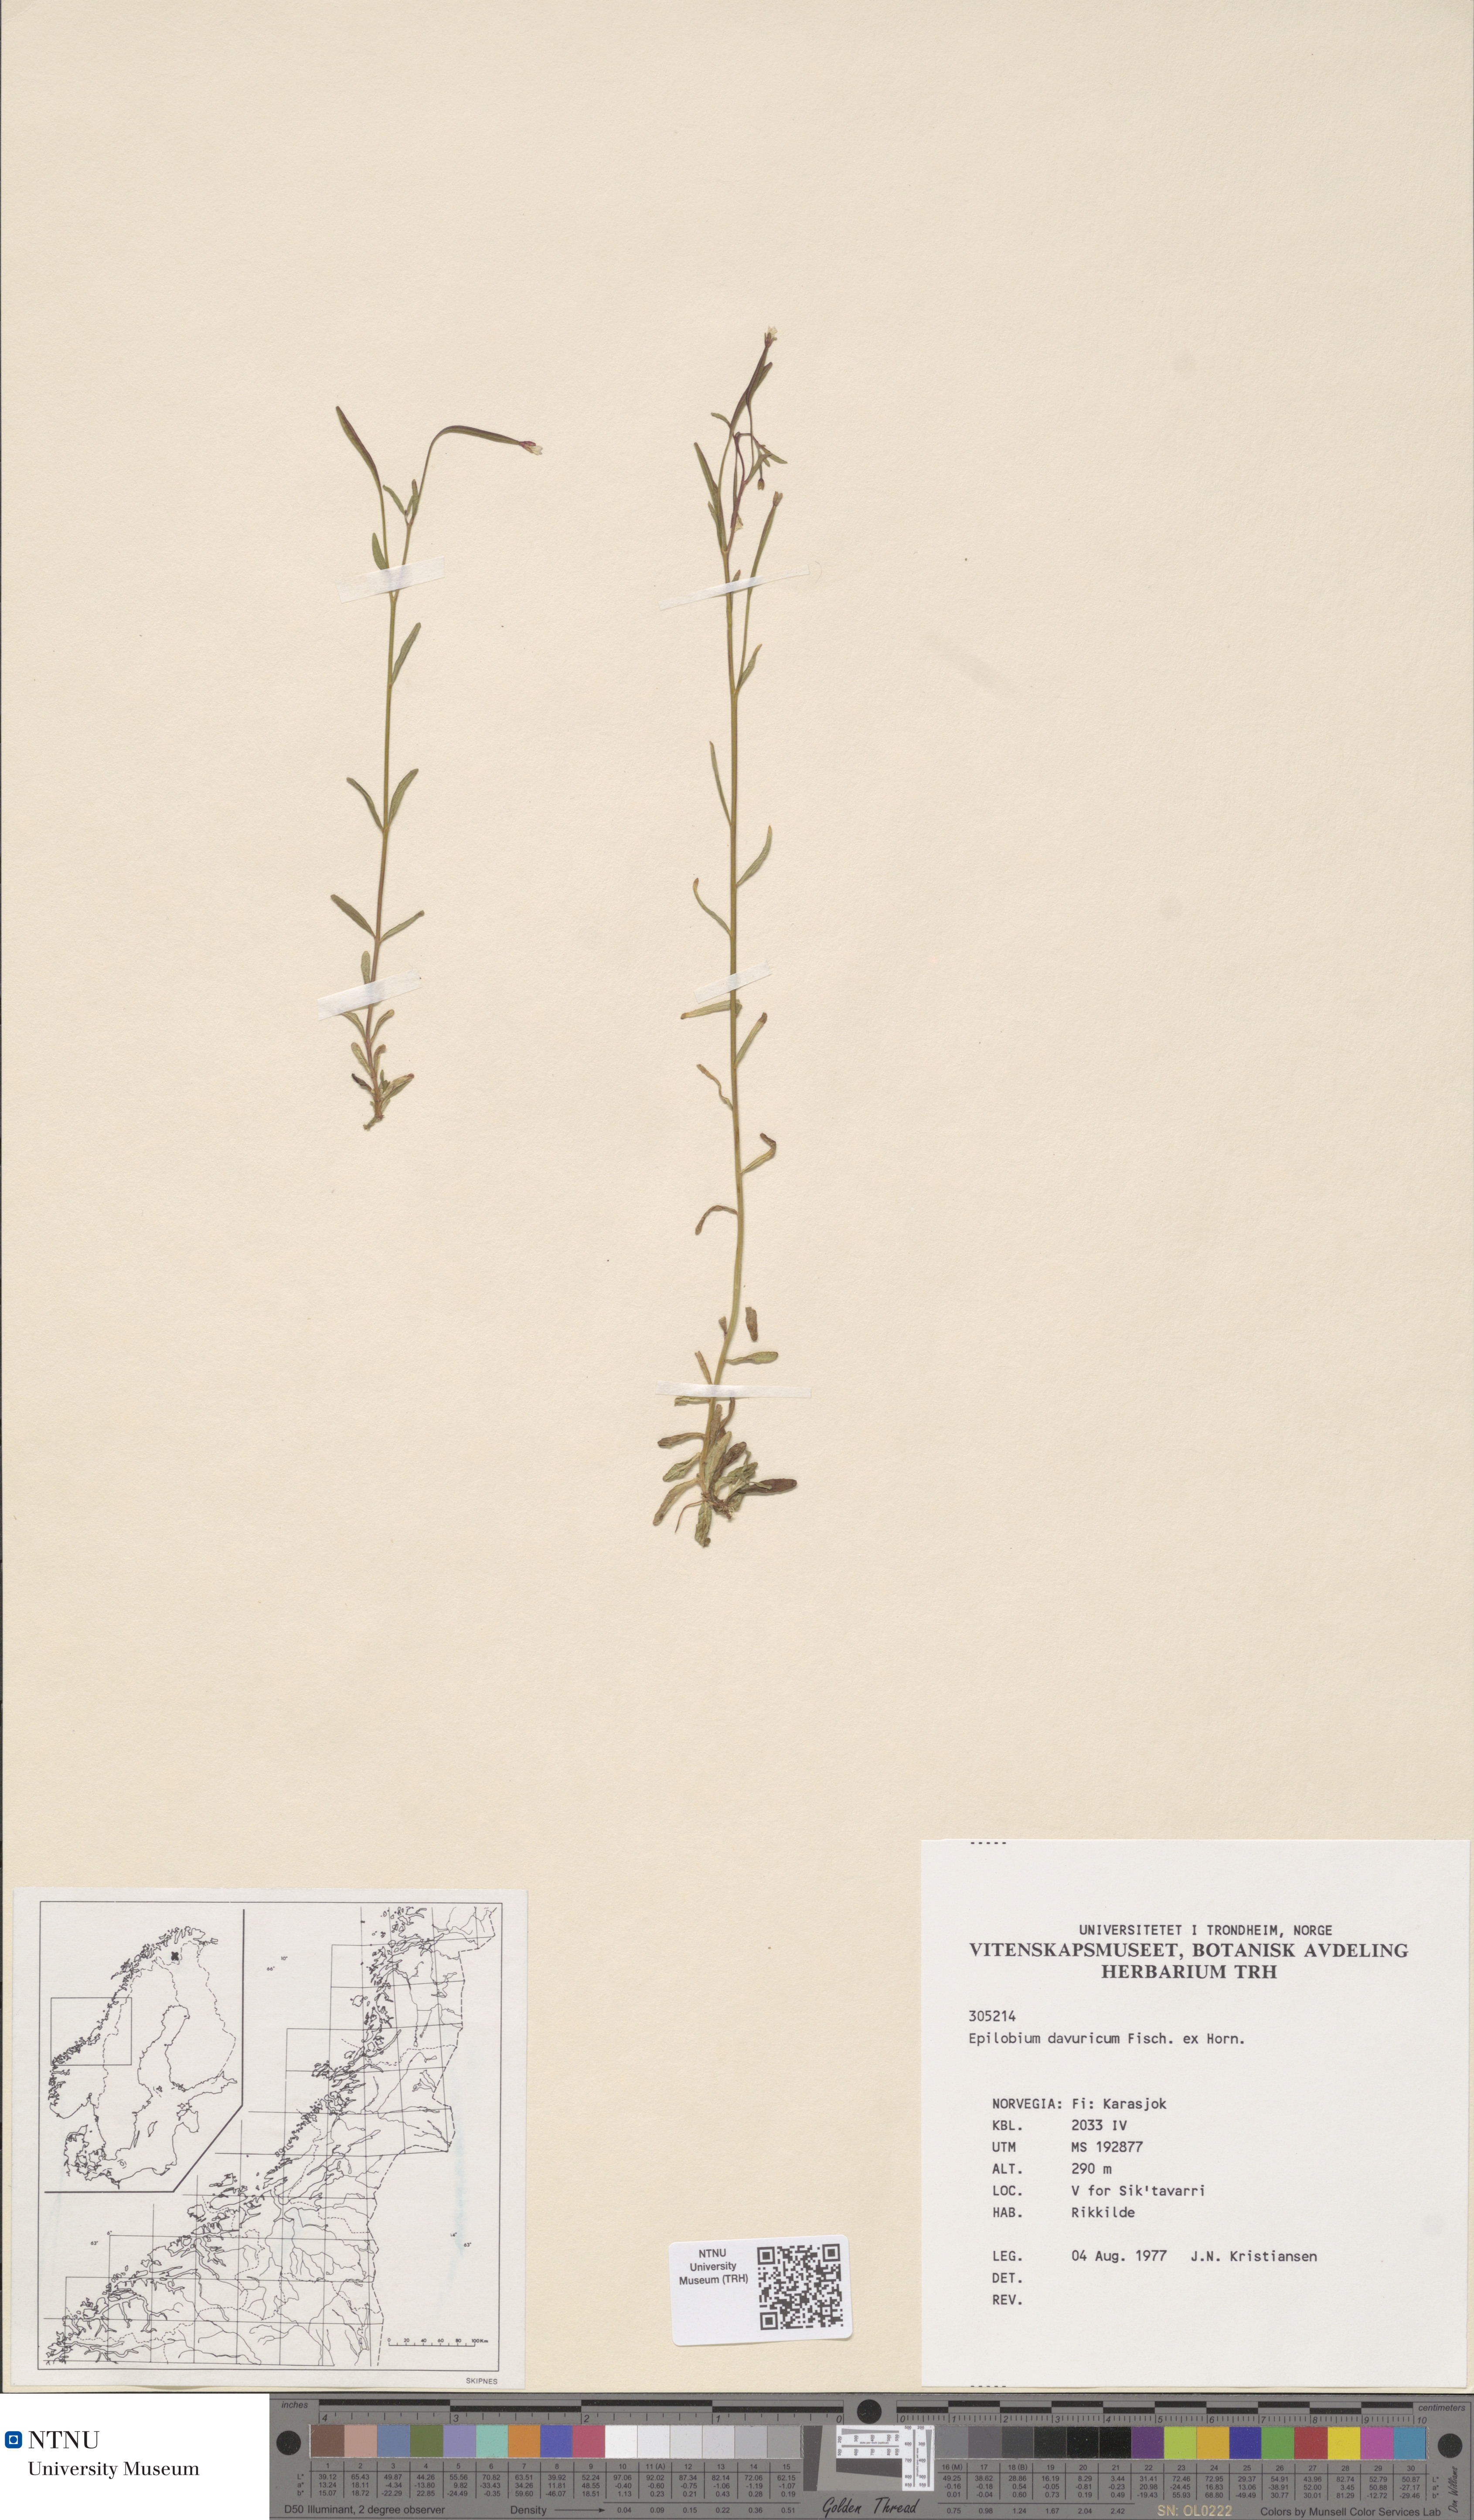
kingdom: Plantae
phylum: Tracheophyta
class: Magnoliopsida
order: Myrtales
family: Onagraceae
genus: Epilobium
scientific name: Epilobium davuricum
